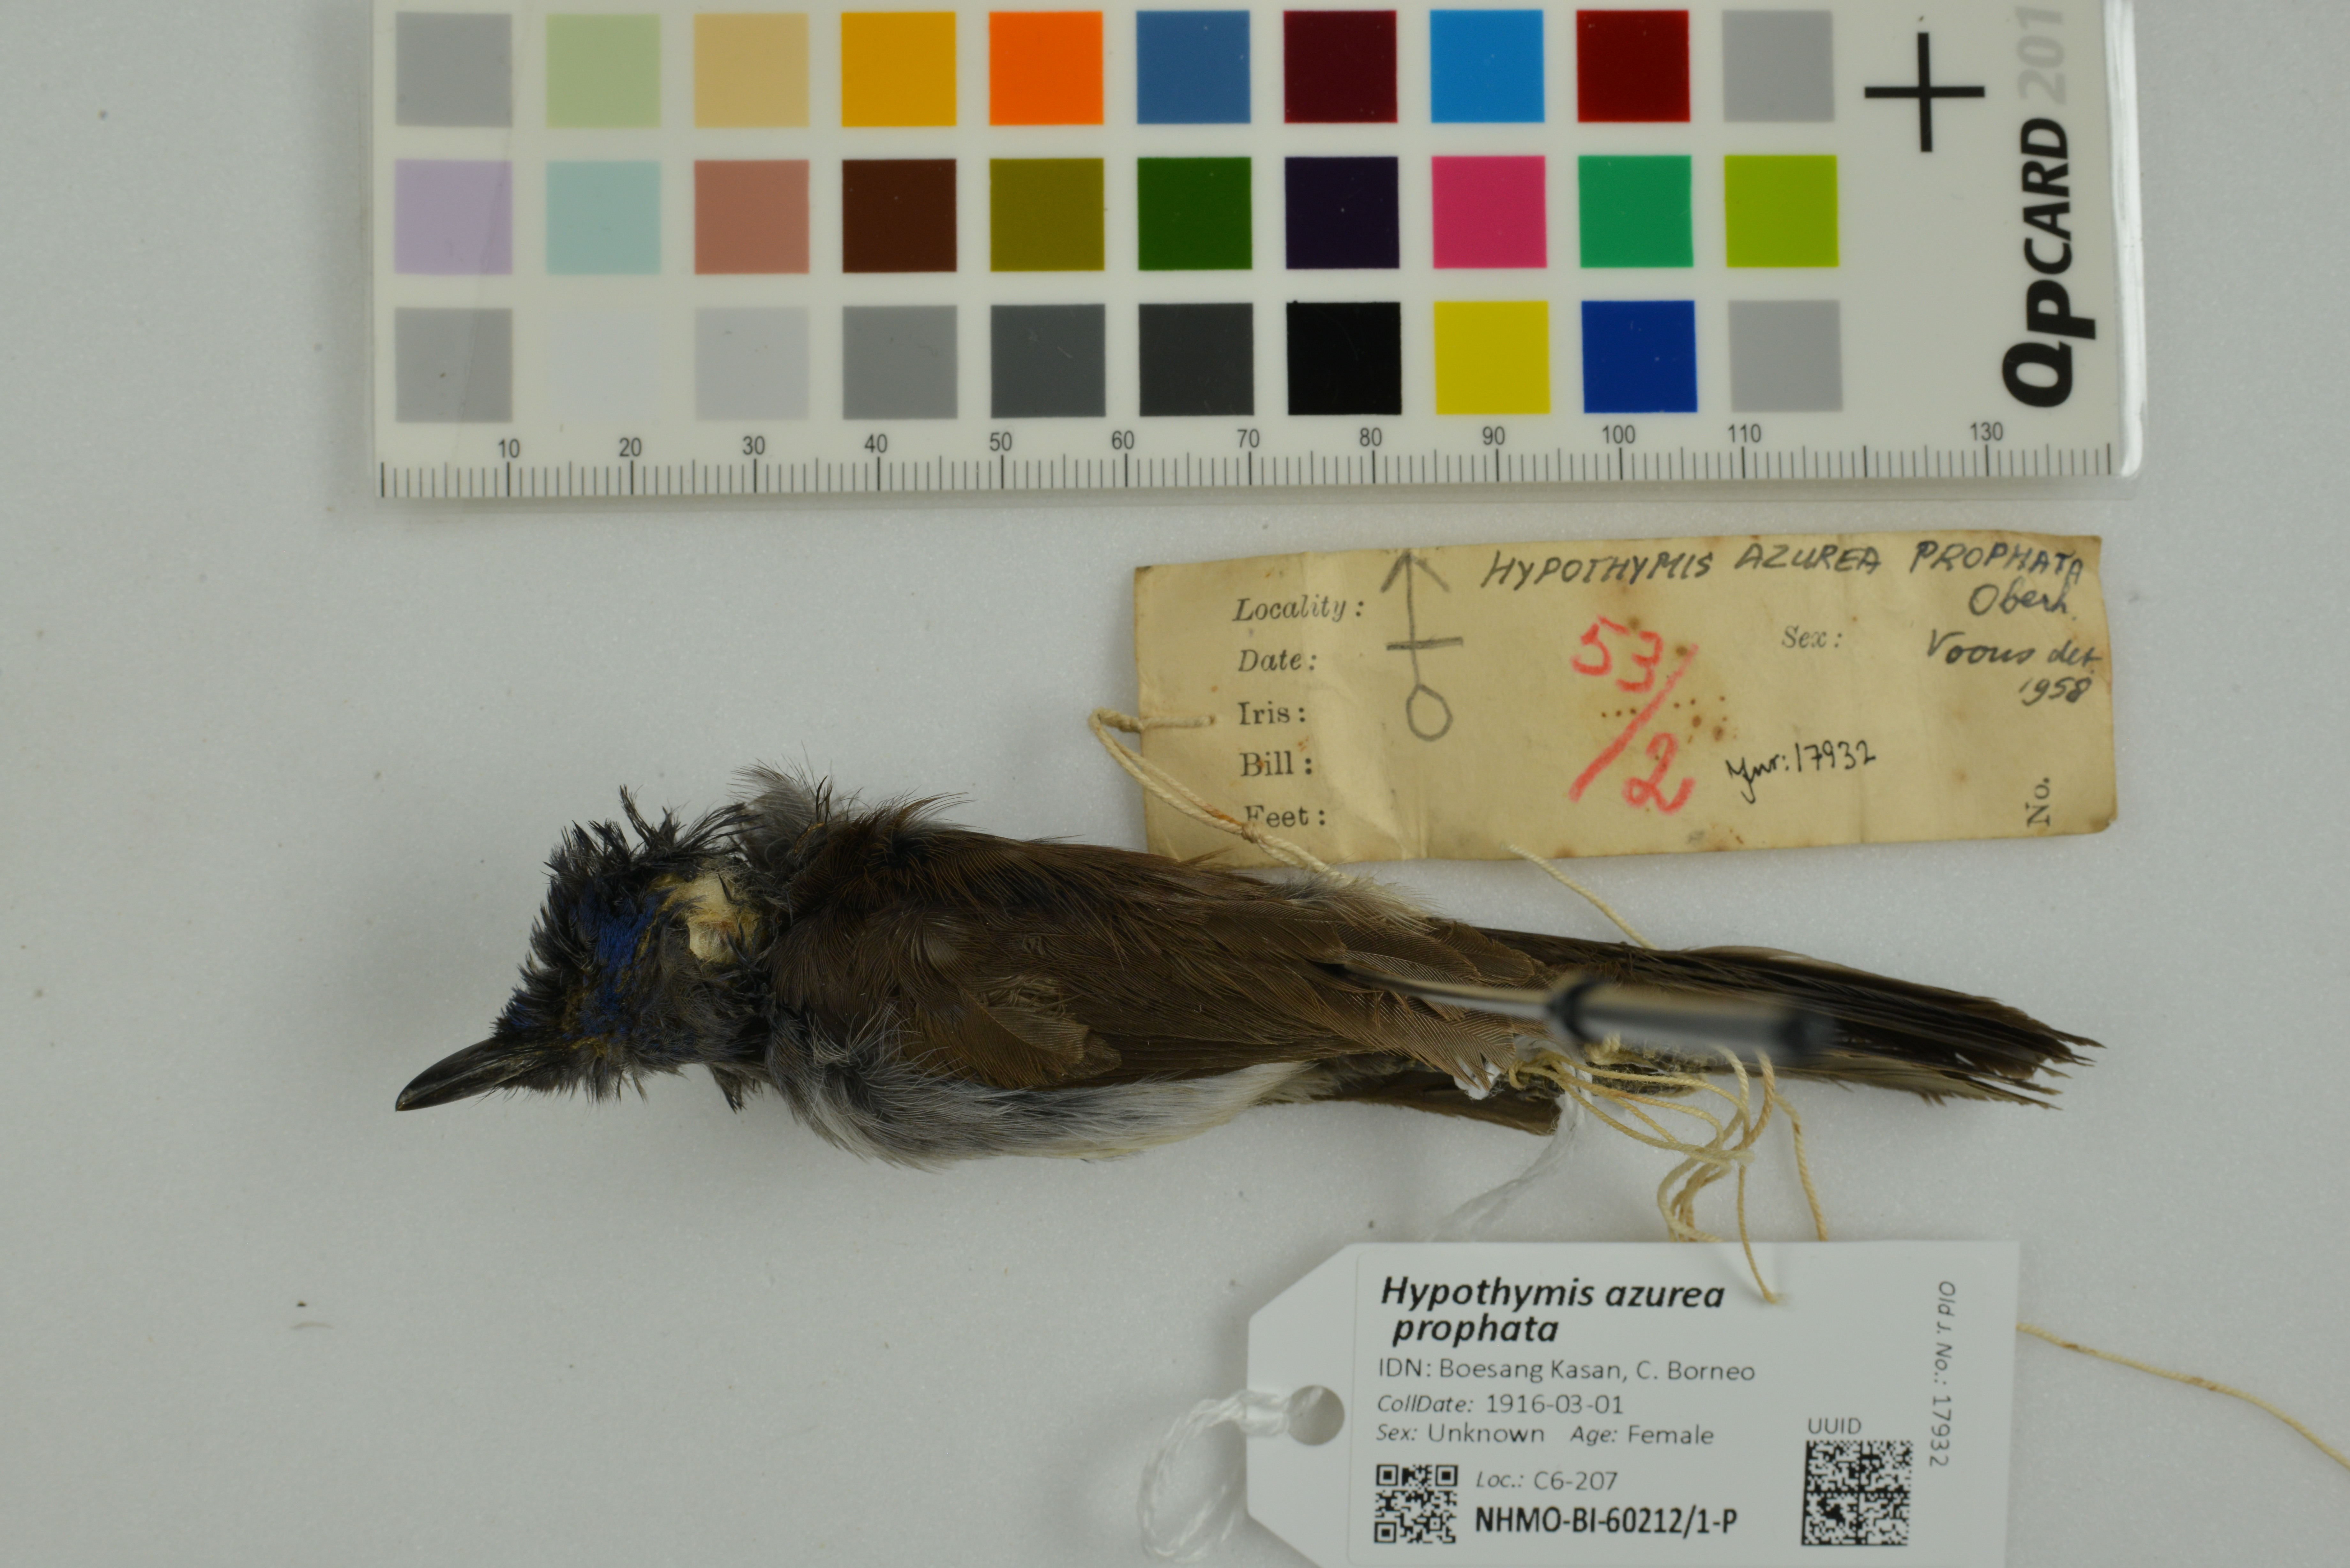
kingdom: Animalia
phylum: Chordata
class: Aves
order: Passeriformes
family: Monarchidae
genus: Hypothymis
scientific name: Hypothymis azurea
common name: Black-naped monarch
